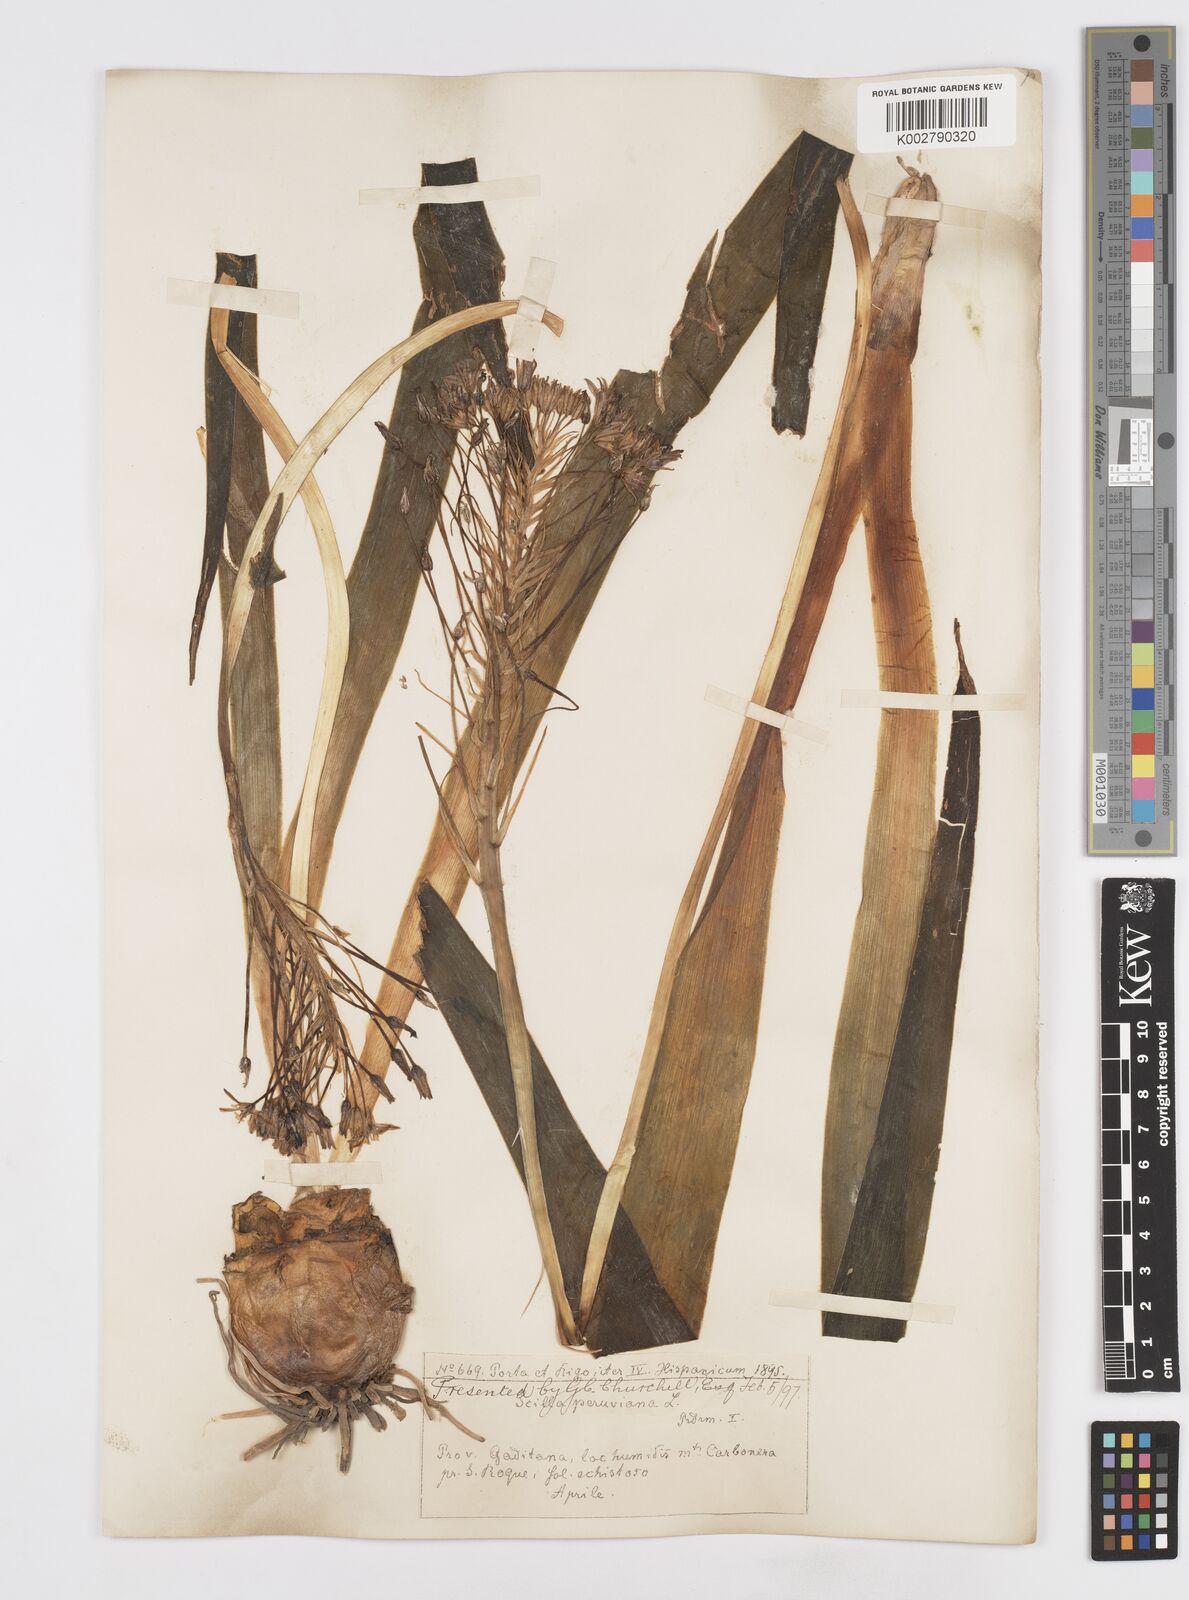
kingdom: Plantae
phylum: Tracheophyta
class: Liliopsida
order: Asparagales
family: Asparagaceae
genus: Scilla
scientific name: Scilla peruviana
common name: Portuguese squill
